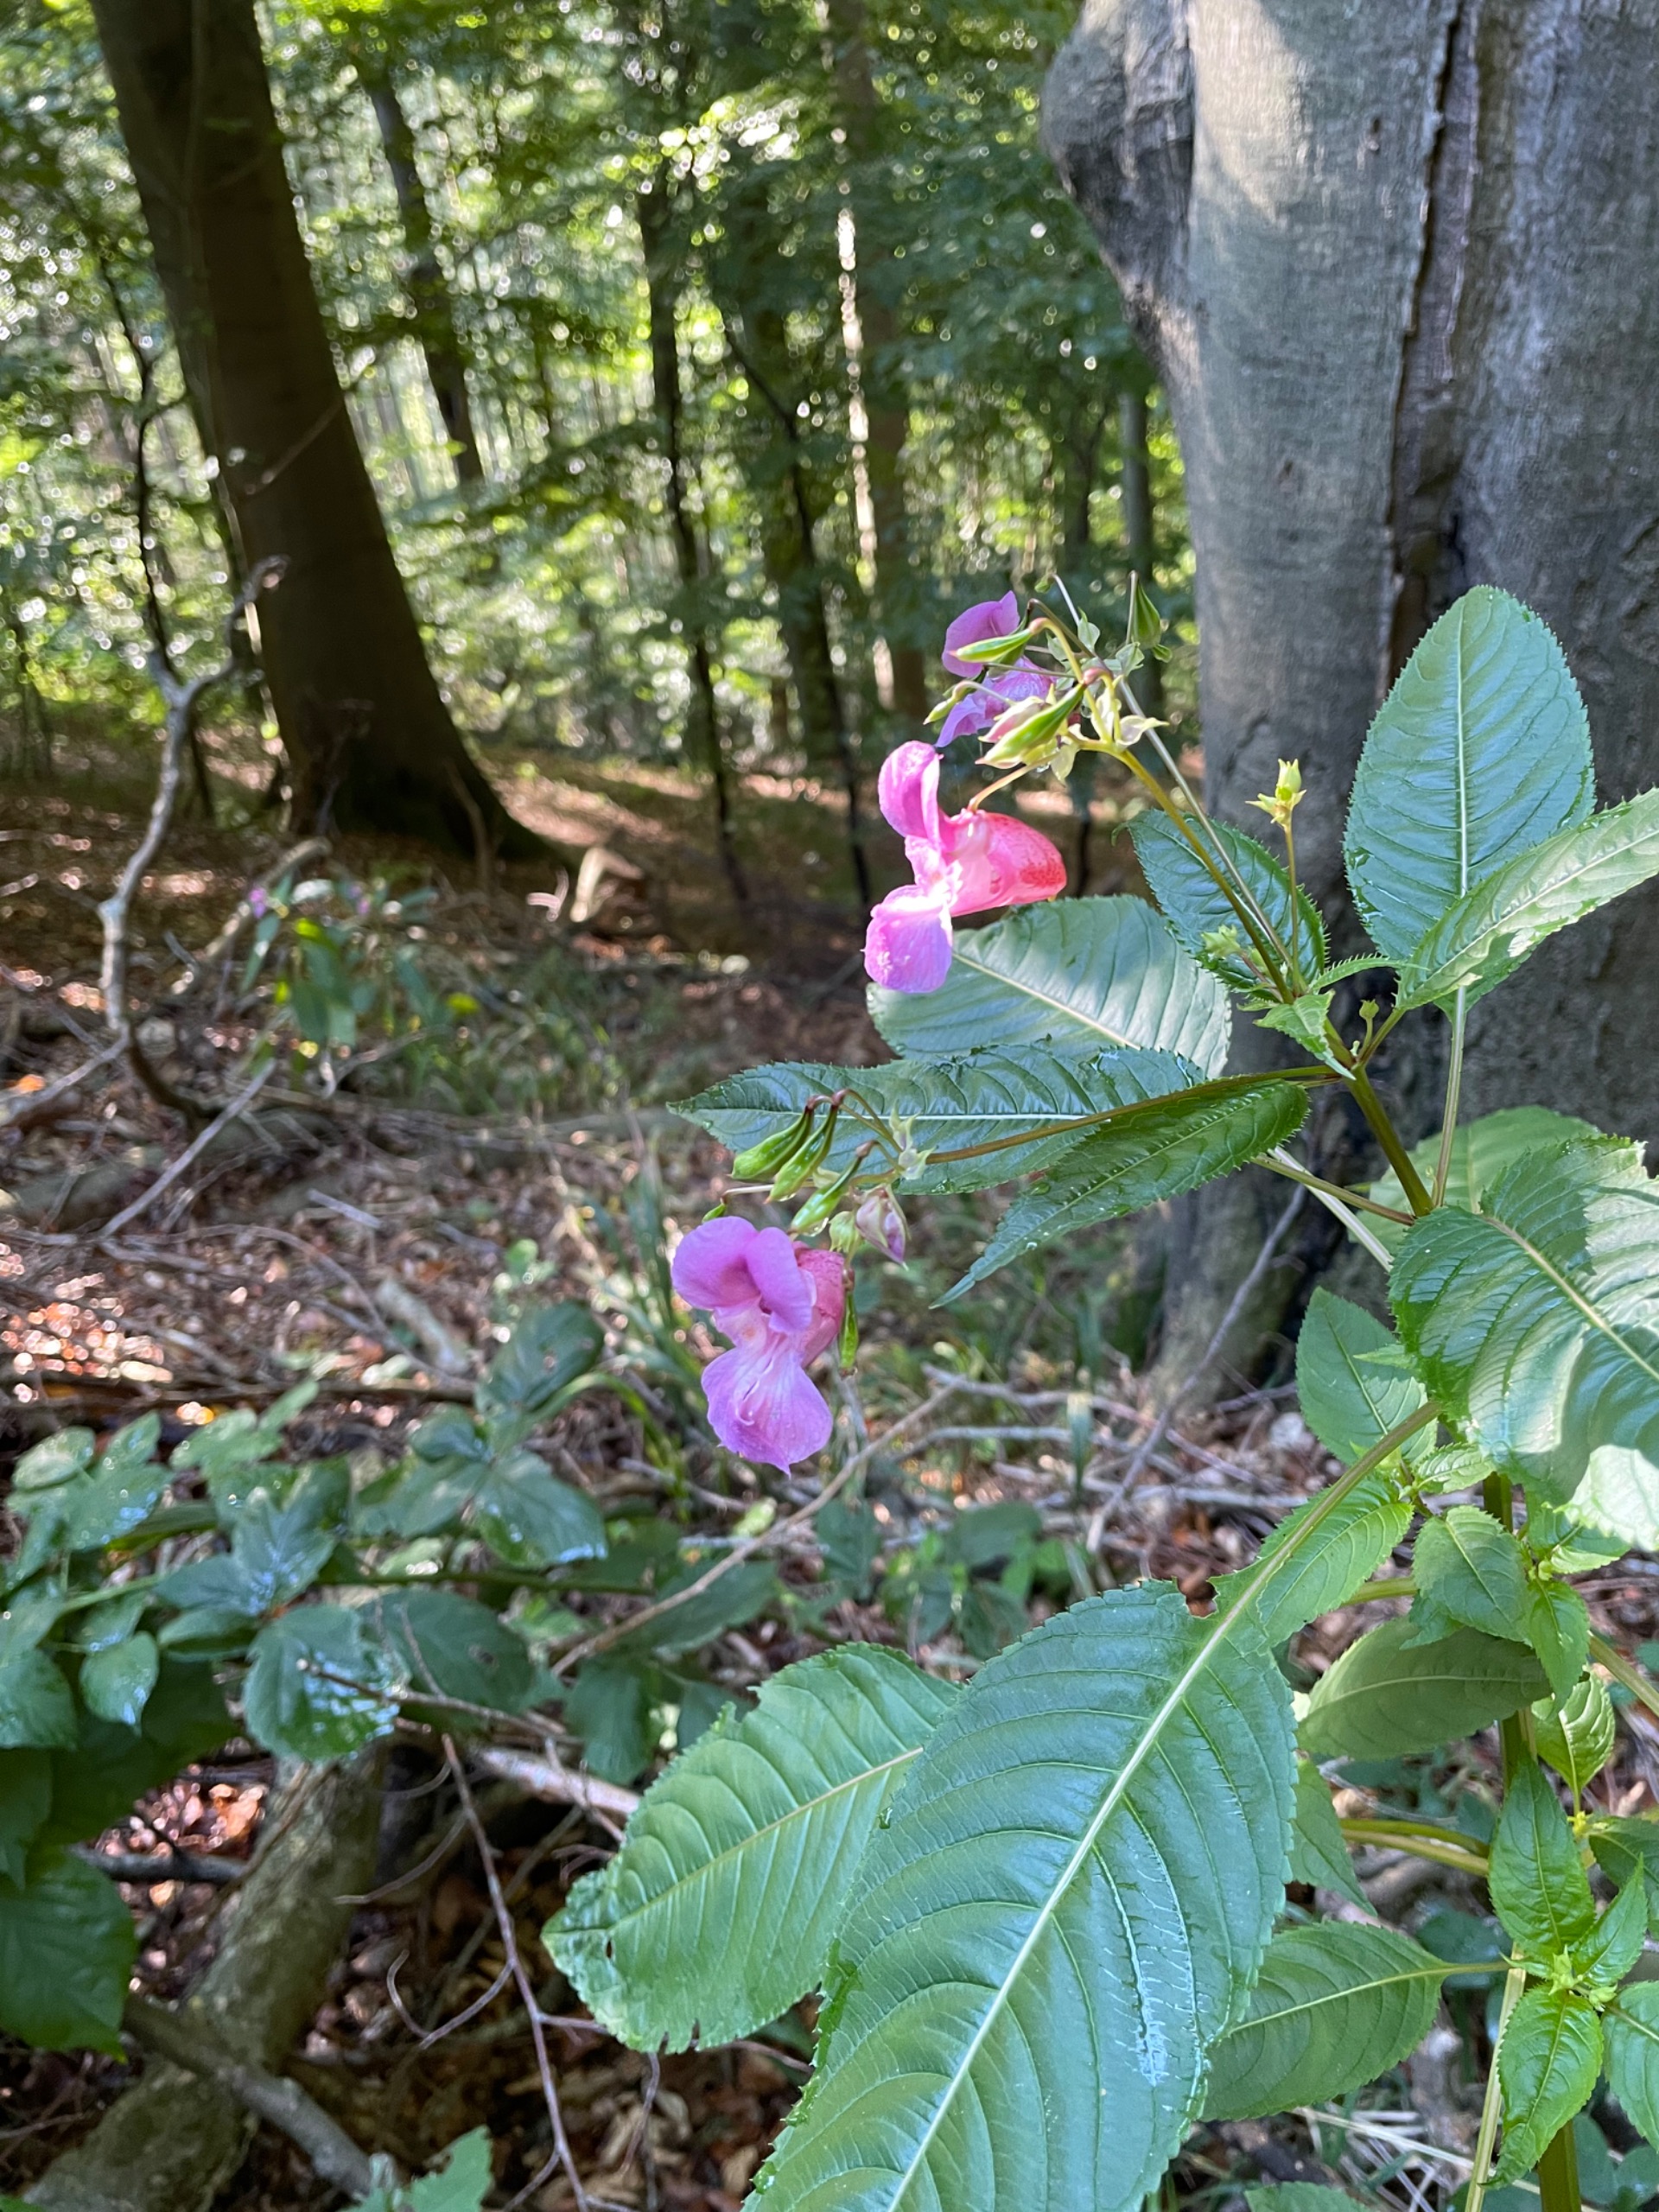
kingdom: Plantae
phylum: Tracheophyta
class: Magnoliopsida
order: Ericales
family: Balsaminaceae
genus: Impatiens
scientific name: Impatiens glandulifera
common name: Kæmpe-balsamin
